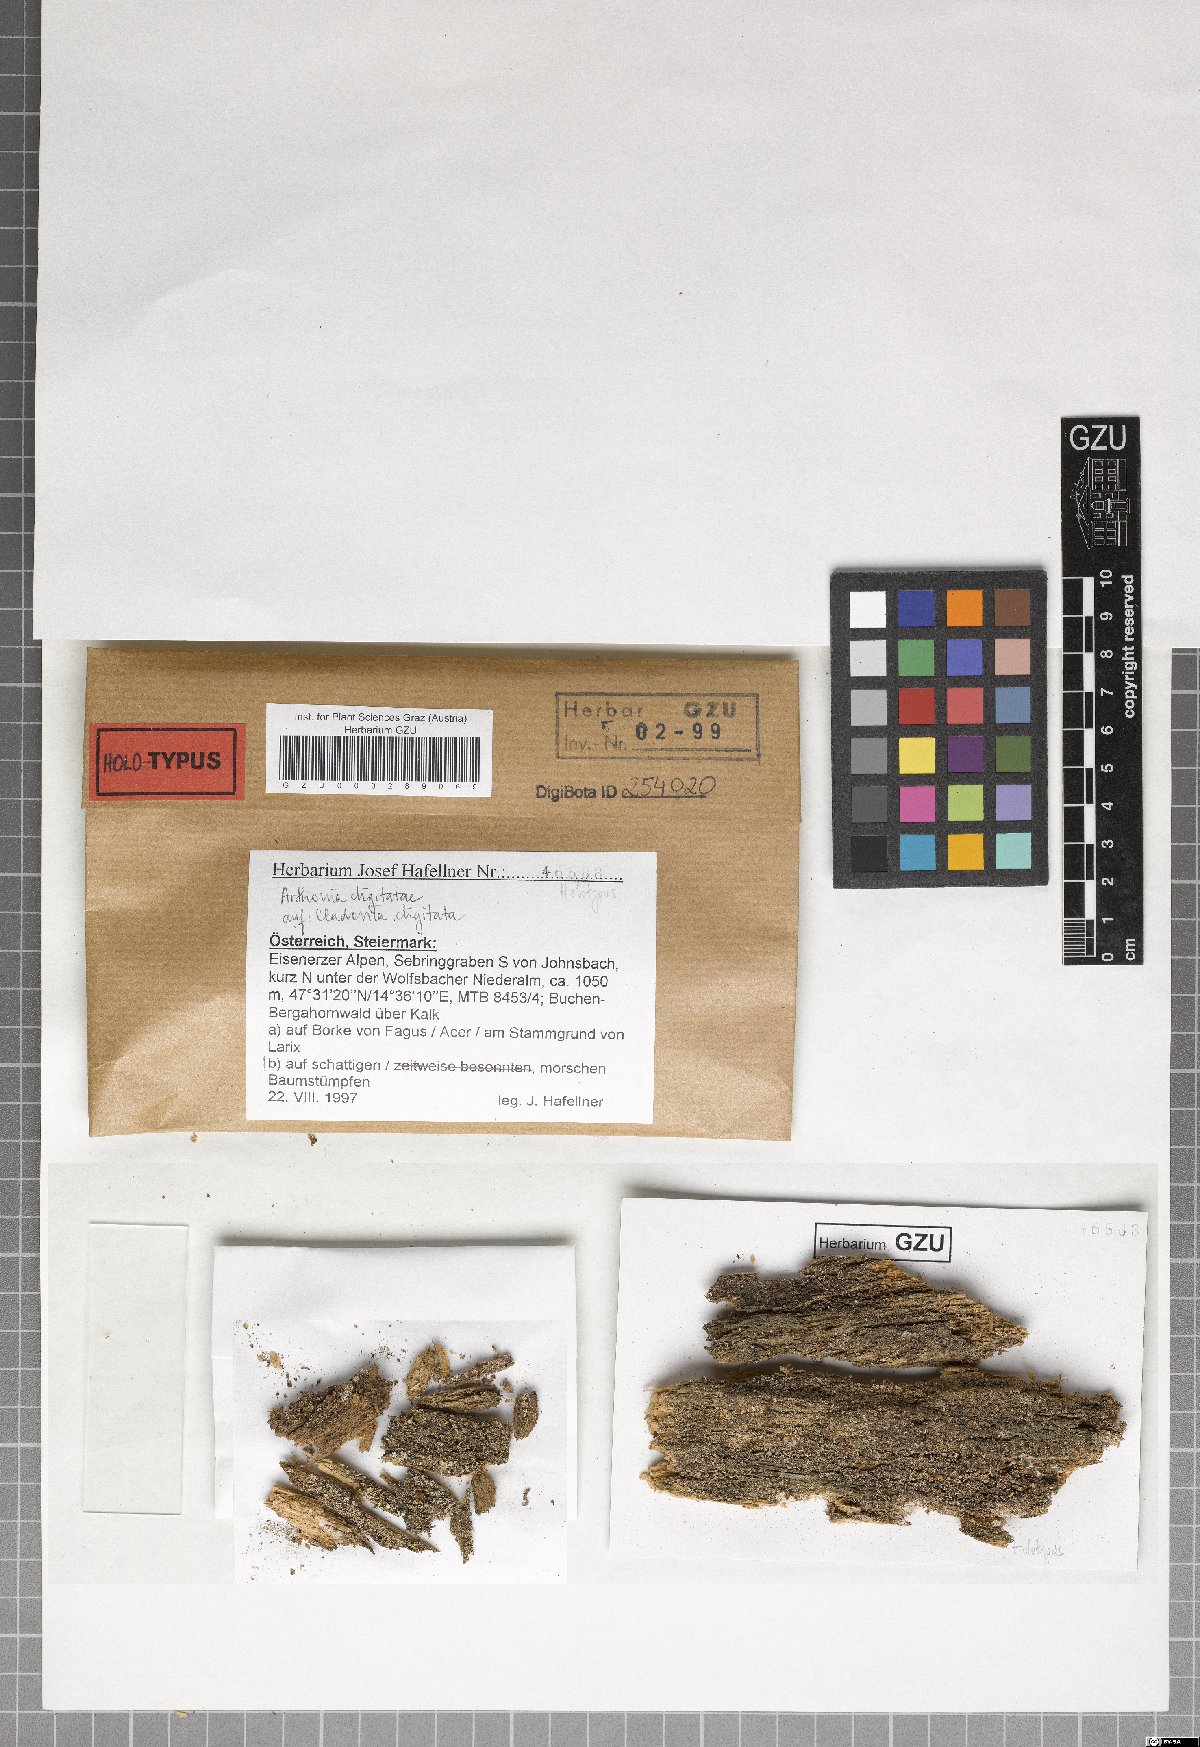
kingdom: Plantae
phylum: Marchantiophyta
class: Jungermanniopsida
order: Jungermanniales
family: Cephaloziaceae
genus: Odontoschisma
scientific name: Odontoschisma
